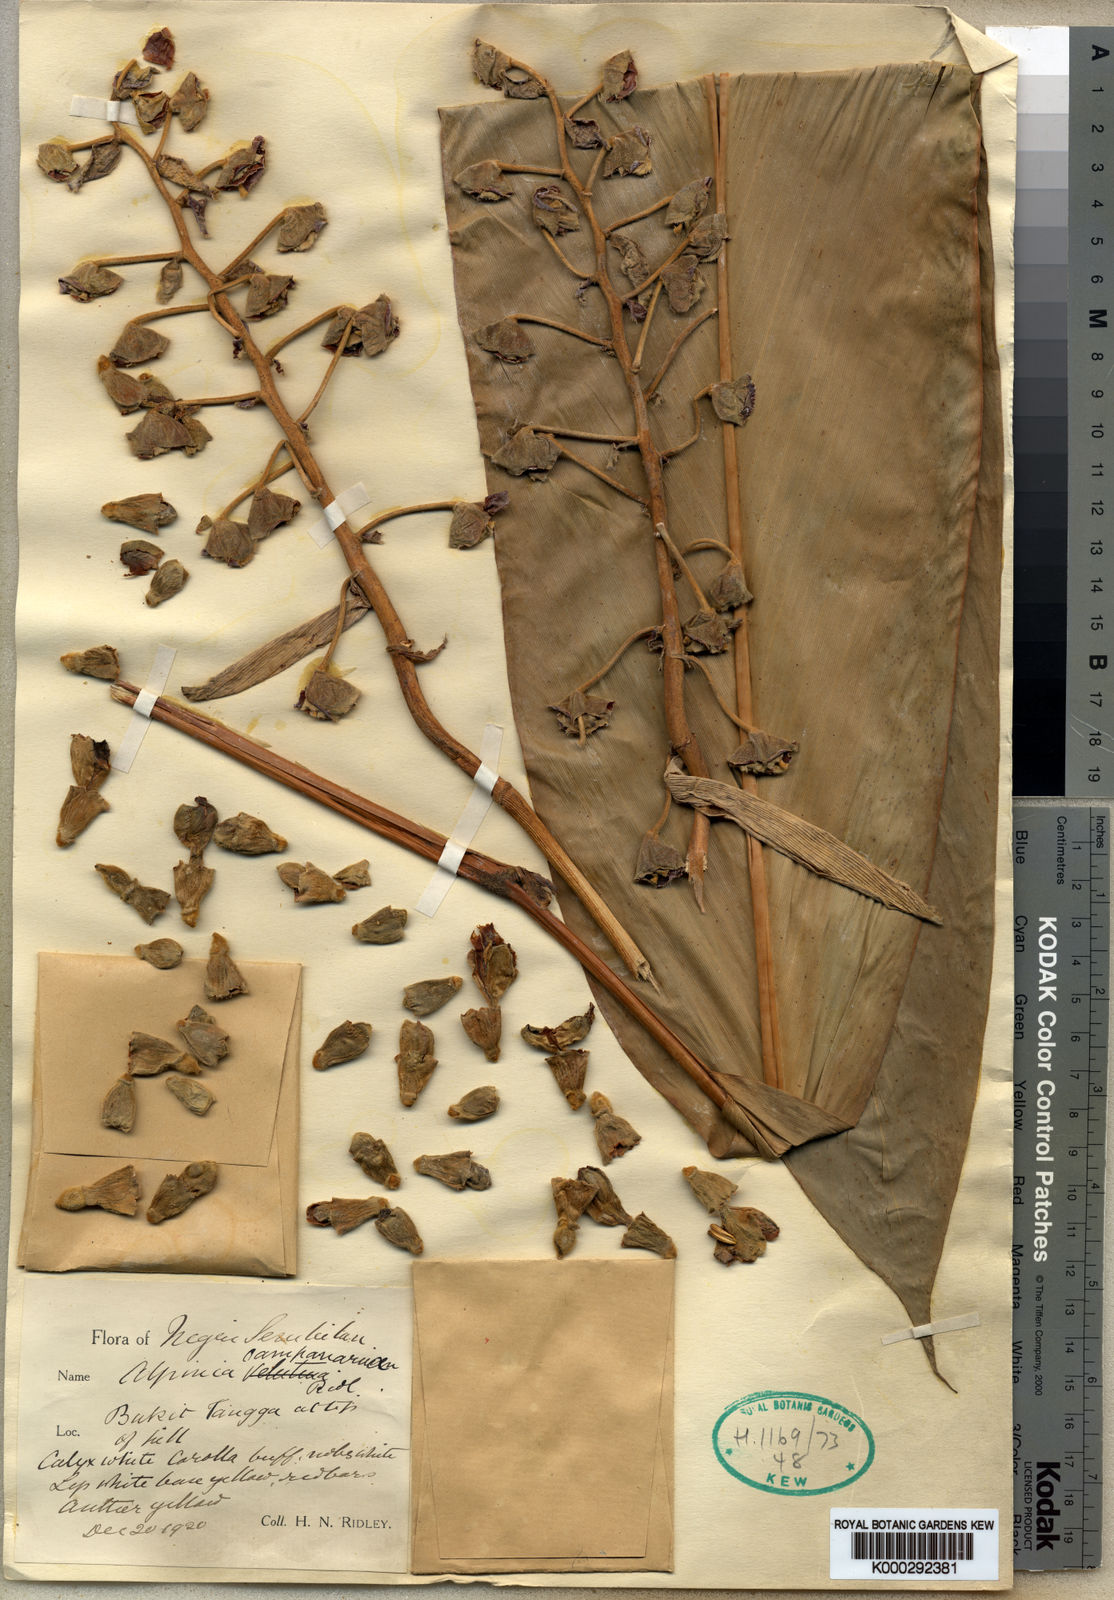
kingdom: Plantae
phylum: Tracheophyta
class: Liliopsida
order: Zingiberales
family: Zingiberaceae
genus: Alpinia
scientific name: Alpinia javanica
